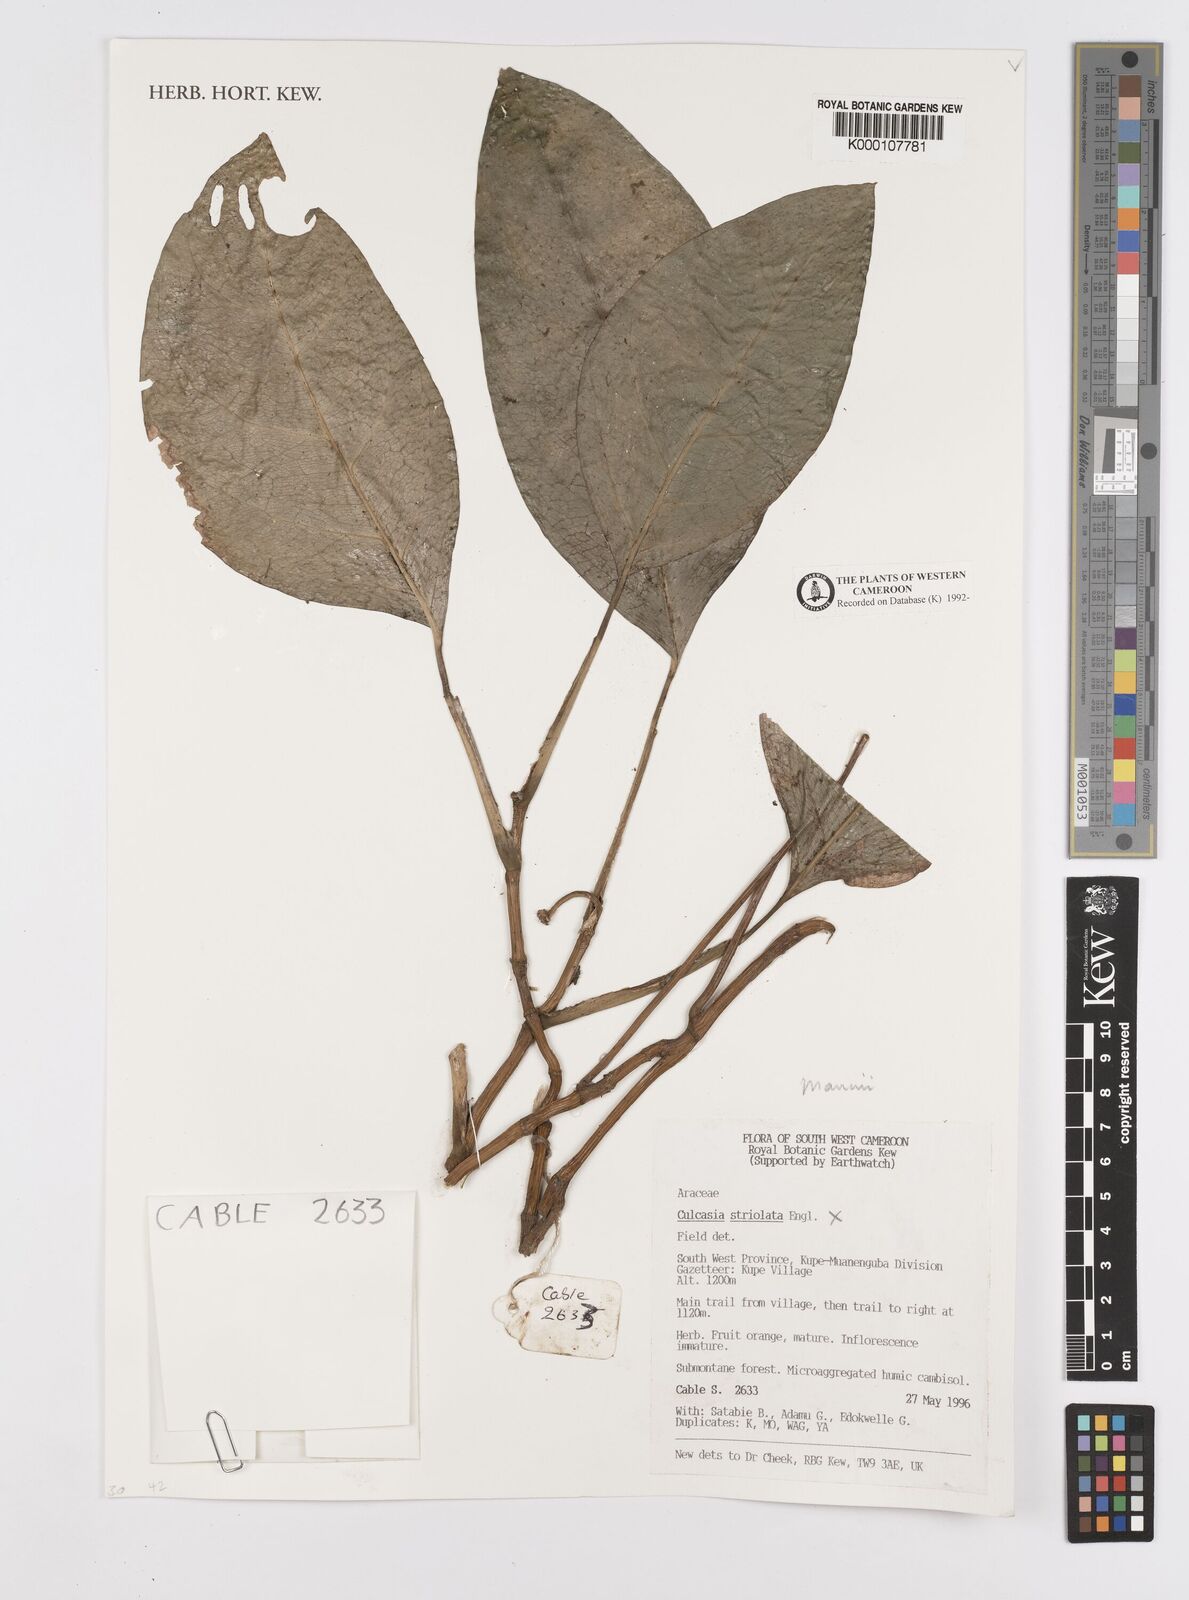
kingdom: Plantae
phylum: Tracheophyta
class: Liliopsida
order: Alismatales
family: Araceae
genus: Culcasia
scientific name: Culcasia striolata
